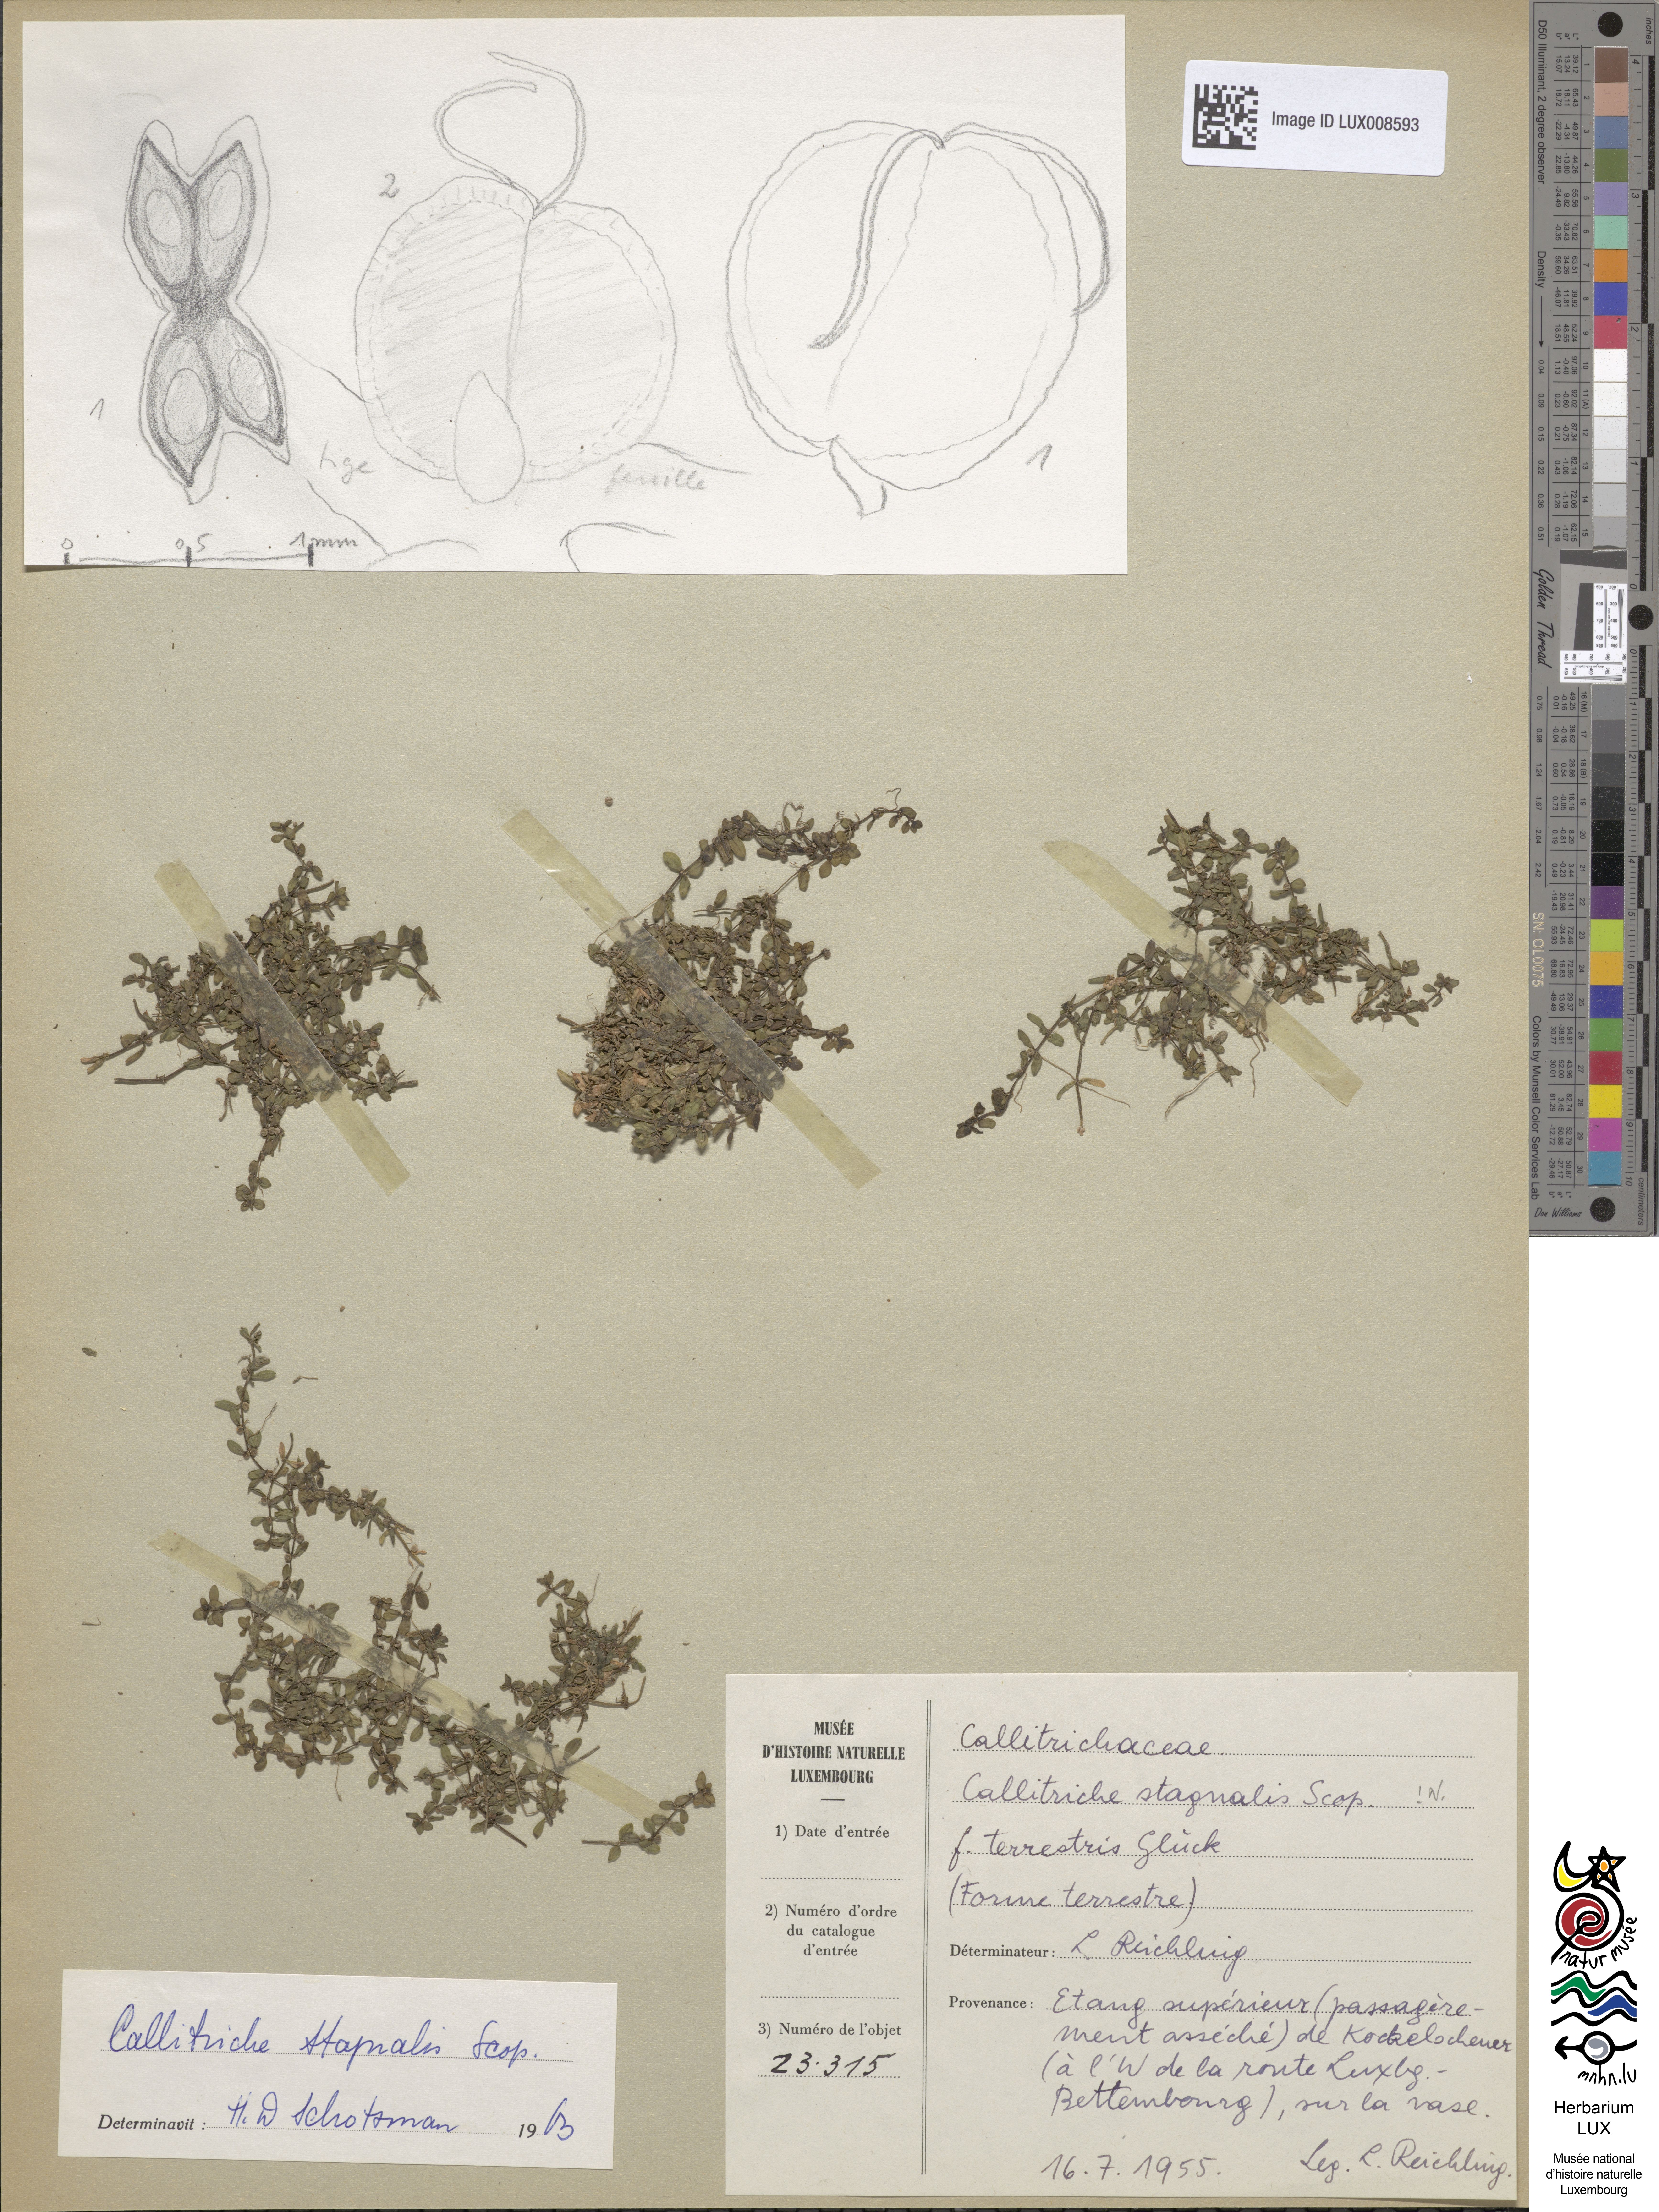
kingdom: Plantae
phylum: Tracheophyta
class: Magnoliopsida
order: Lamiales
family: Plantaginaceae
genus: Callitriche
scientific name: Callitriche stagnalis
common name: Common water-starwort
